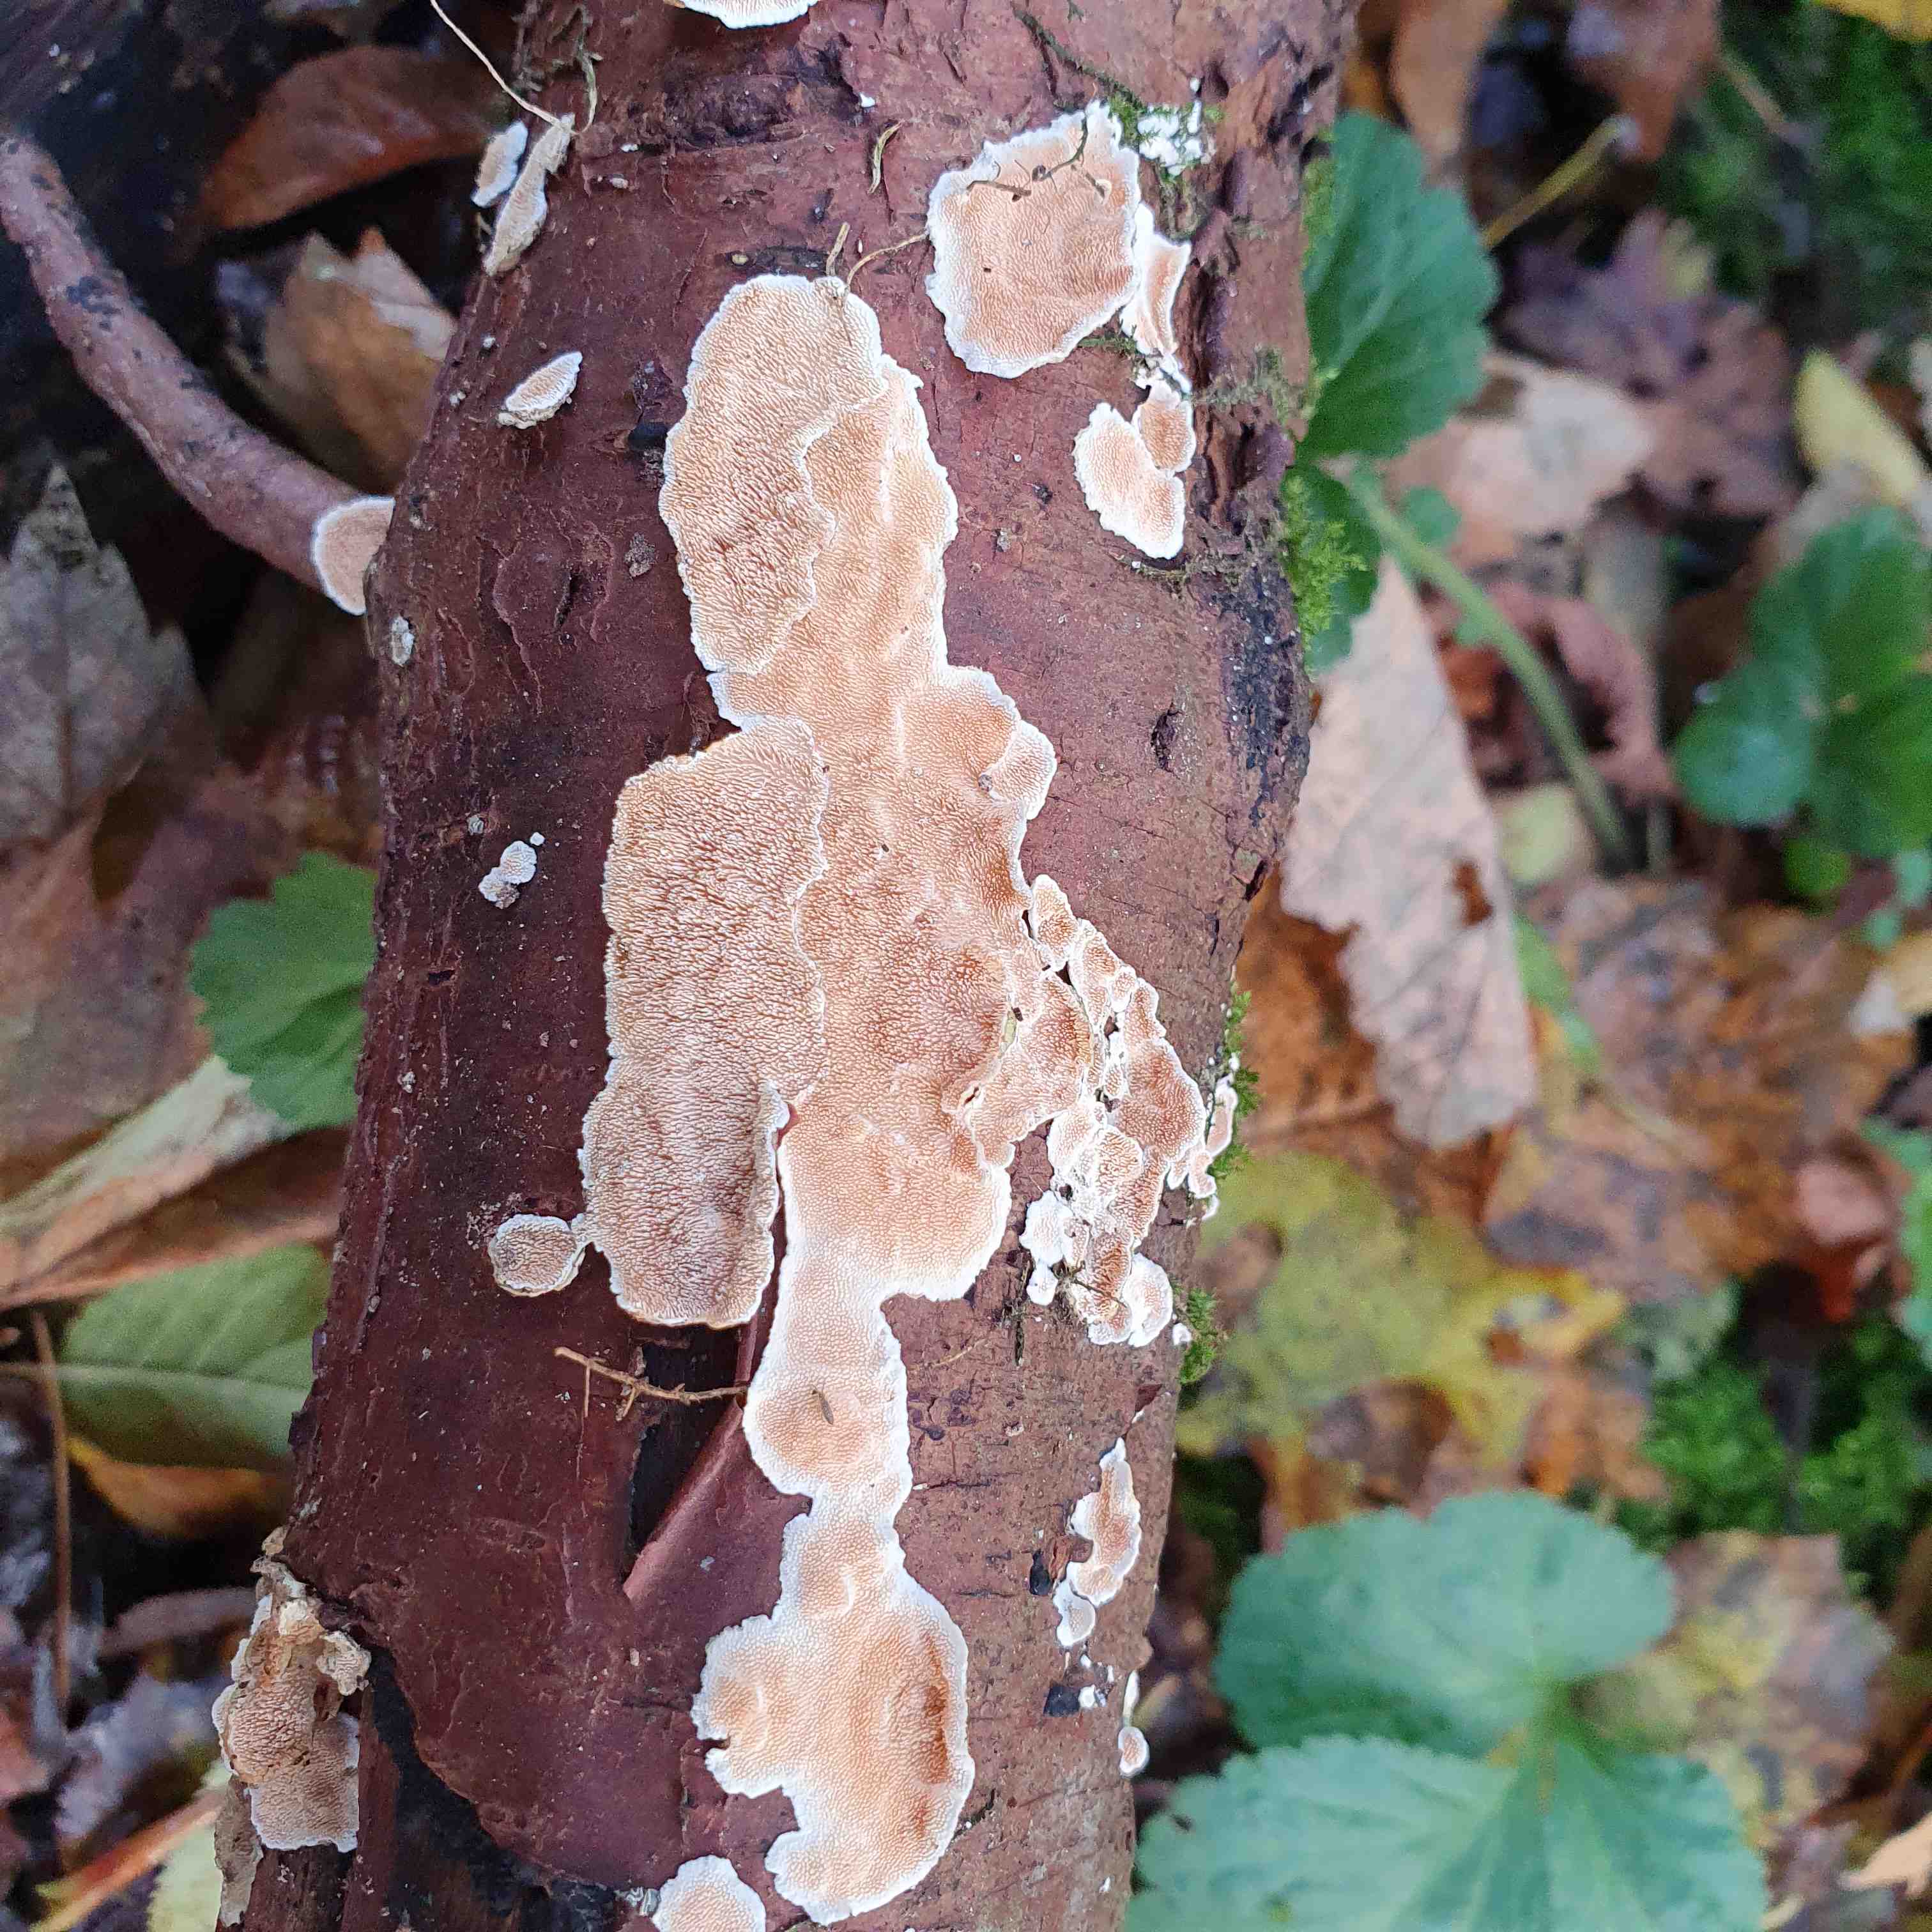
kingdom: Fungi
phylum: Basidiomycota
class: Agaricomycetes
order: Polyporales
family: Steccherinaceae
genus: Steccherinum
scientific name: Steccherinum ochraceum
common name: almindelig skønpig
